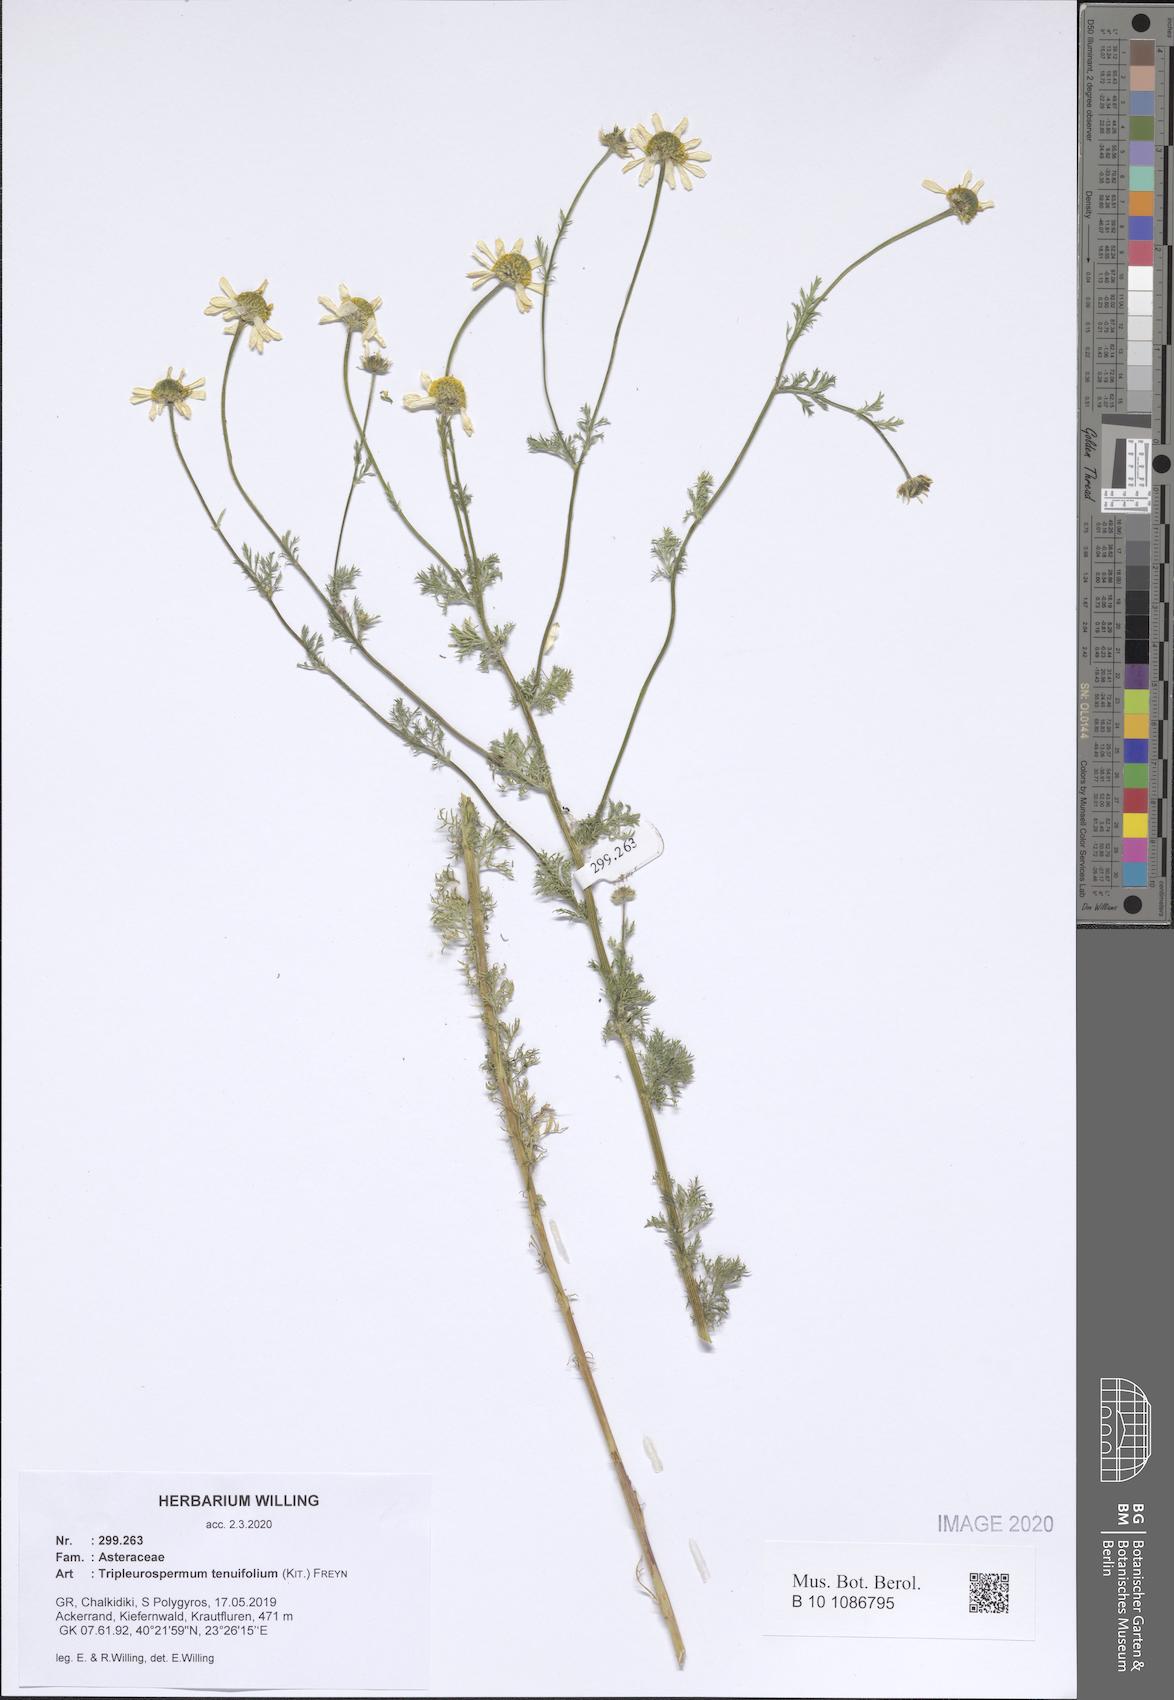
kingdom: Plantae
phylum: Tracheophyta
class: Magnoliopsida
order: Asterales
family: Asteraceae
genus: Tripleurospermum
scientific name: Tripleurospermum tenuifolium
